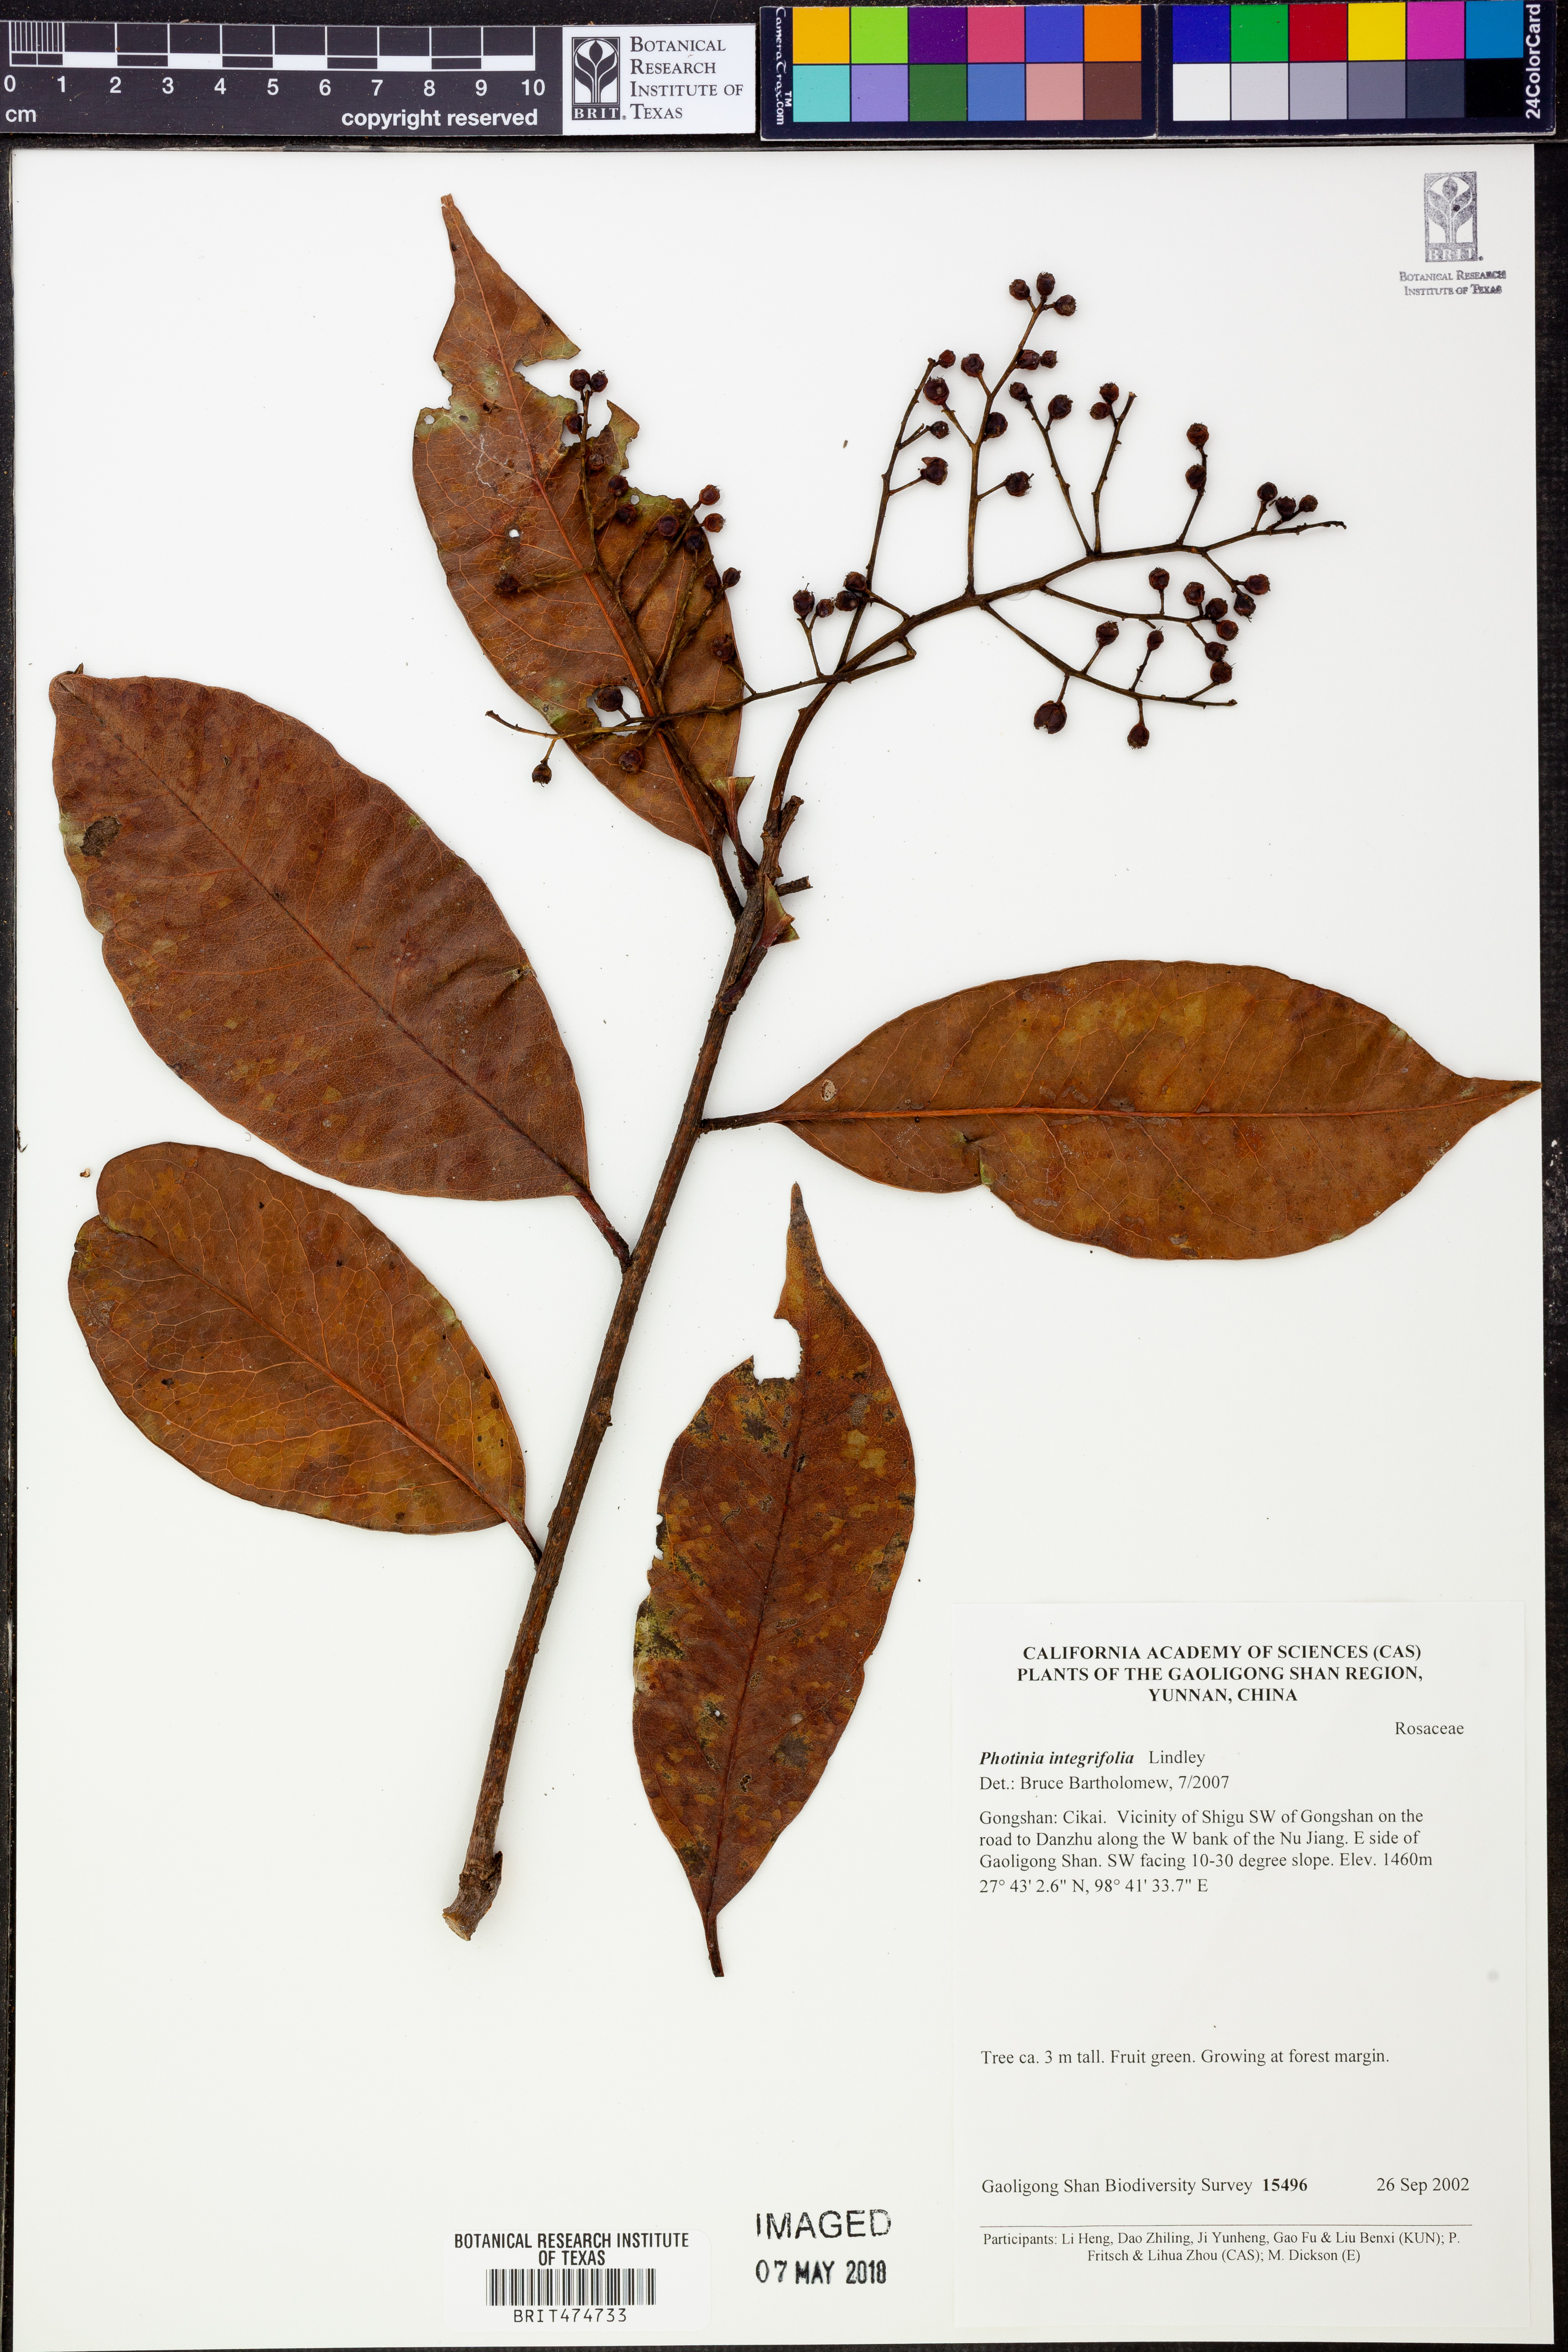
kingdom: Plantae
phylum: Tracheophyta
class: Magnoliopsida
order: Rosales
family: Rosaceae
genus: Photinia
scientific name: Photinia integrifolia
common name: Himalayan chokeberry
